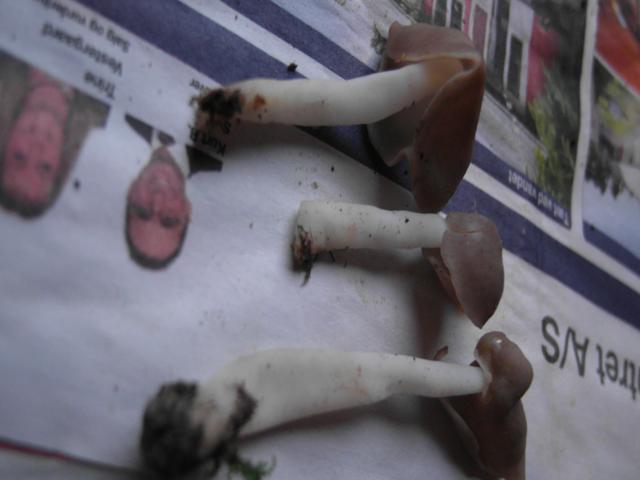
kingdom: Fungi
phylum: Ascomycota
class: Pezizomycetes
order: Pezizales
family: Helvellaceae
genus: Helvella
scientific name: Helvella levis
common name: bredsporet foldhat
